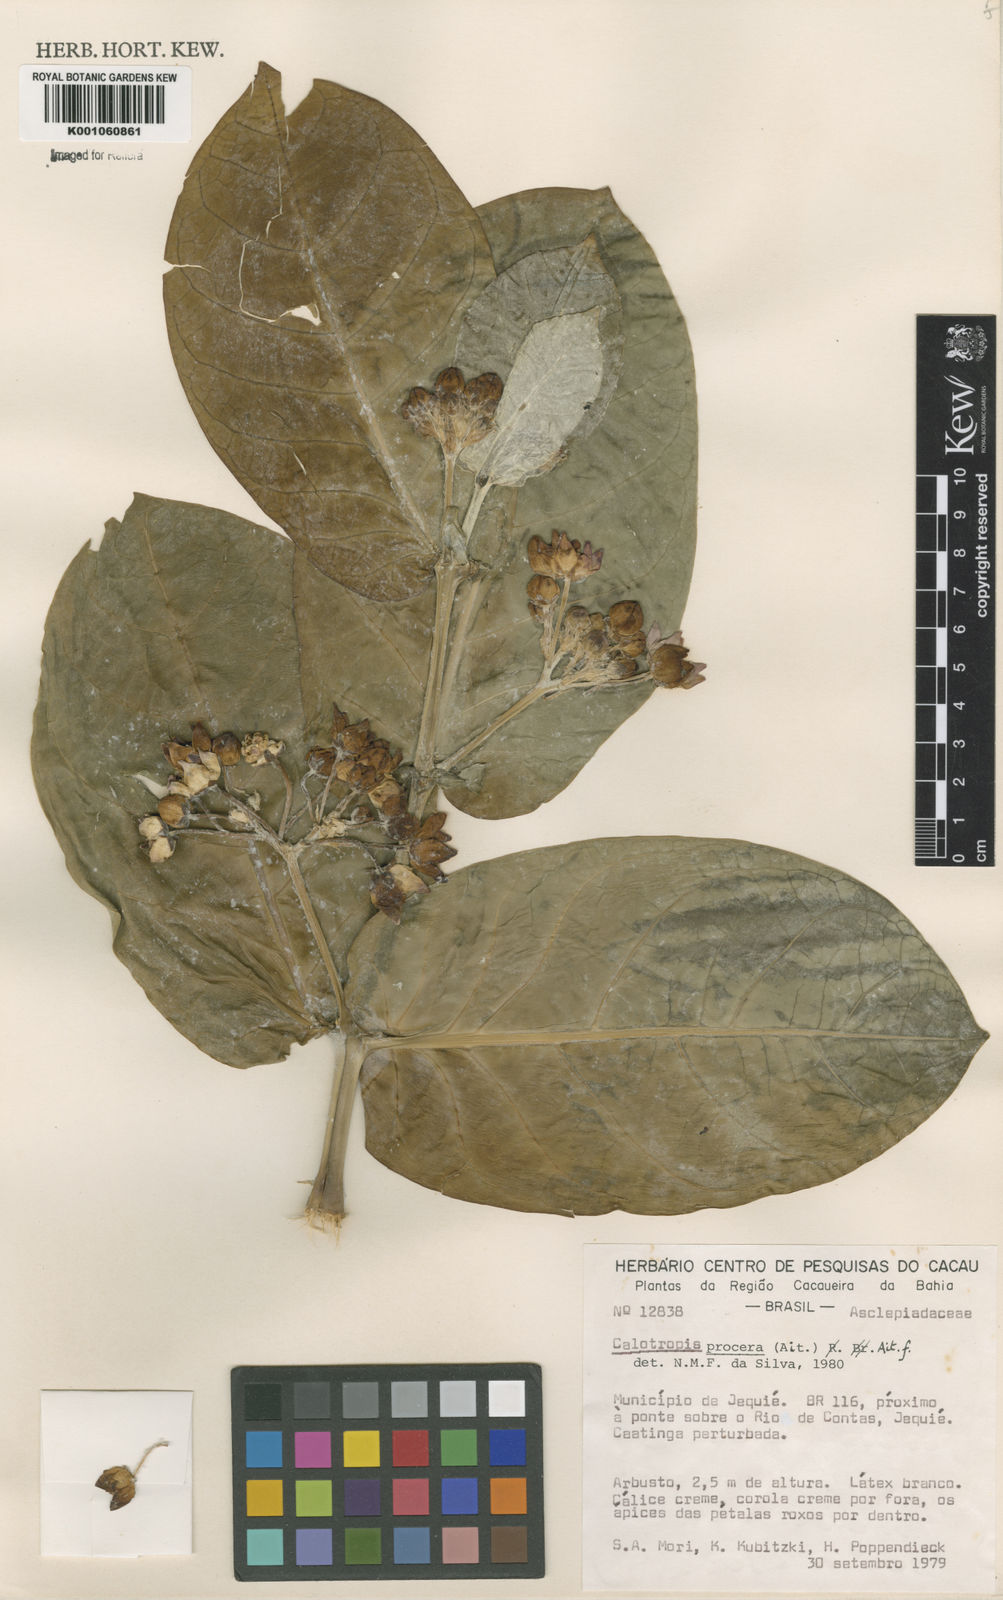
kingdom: Plantae
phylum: Tracheophyta
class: Magnoliopsida
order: Gentianales
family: Apocynaceae
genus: Calotropis
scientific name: Calotropis procera
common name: Roostertree
